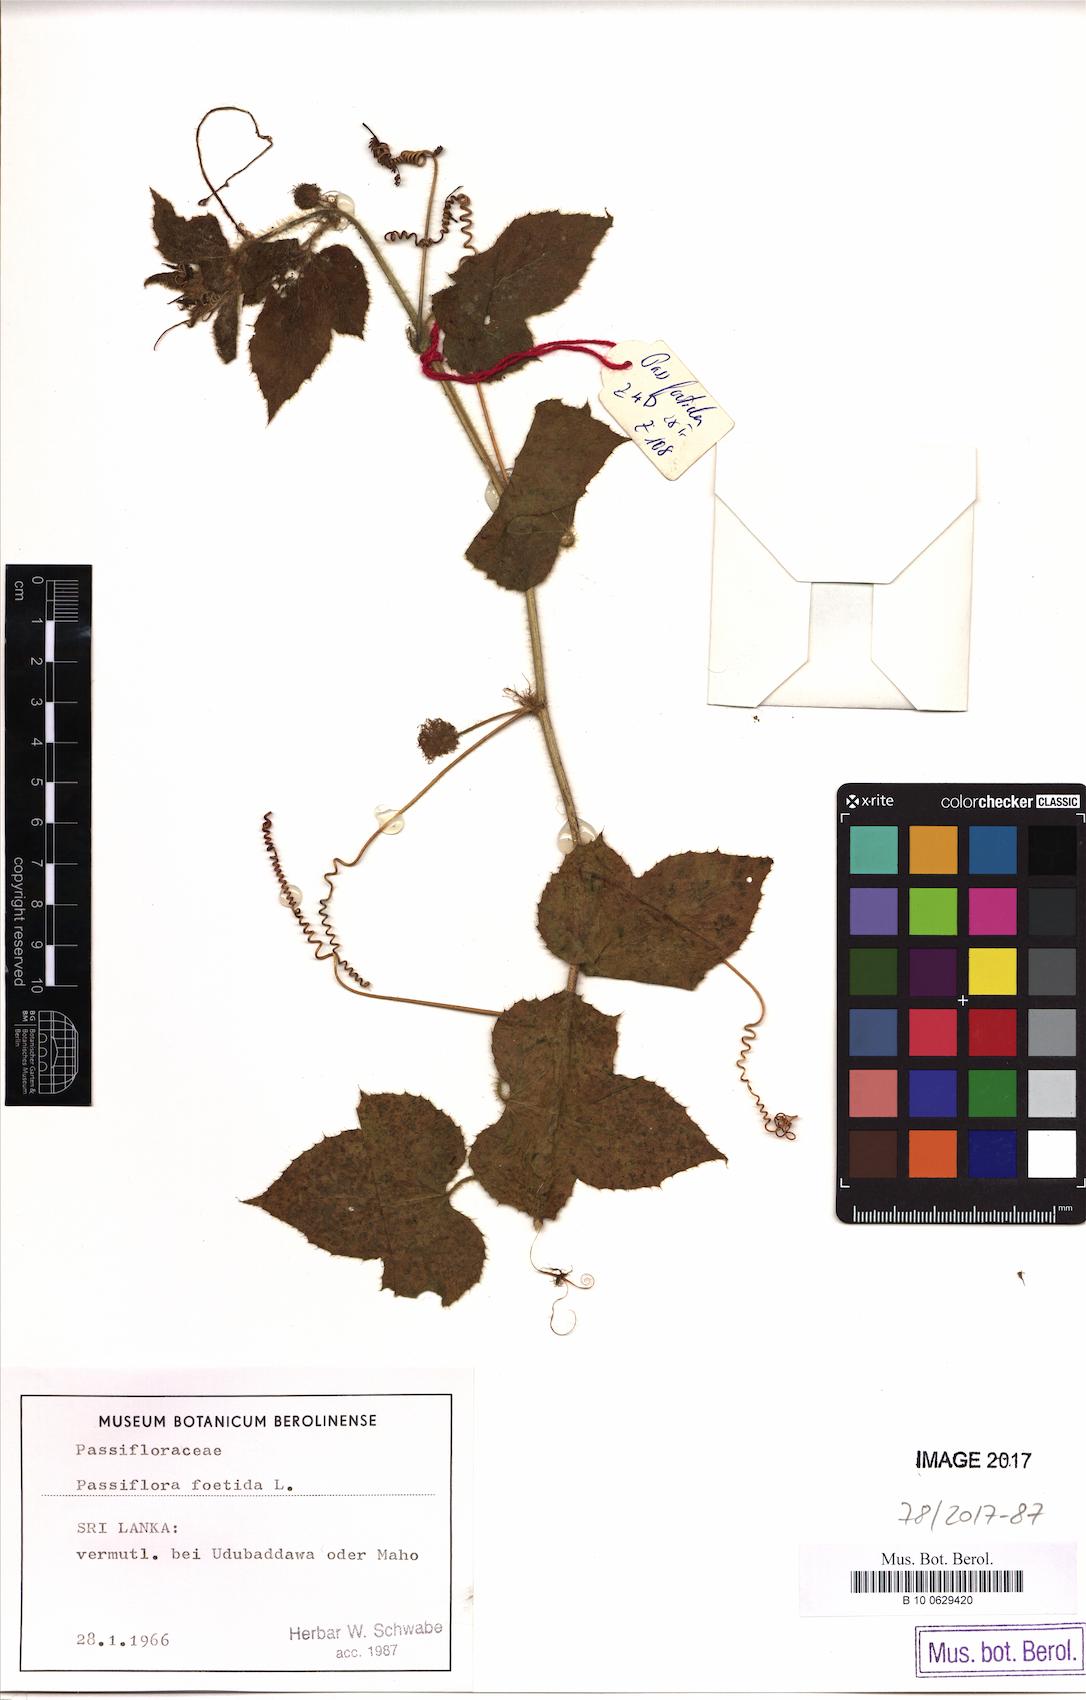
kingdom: Plantae
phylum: Tracheophyta
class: Magnoliopsida
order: Malpighiales
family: Passifloraceae
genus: Passiflora
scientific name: Passiflora foetida
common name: Fetid passionflower
